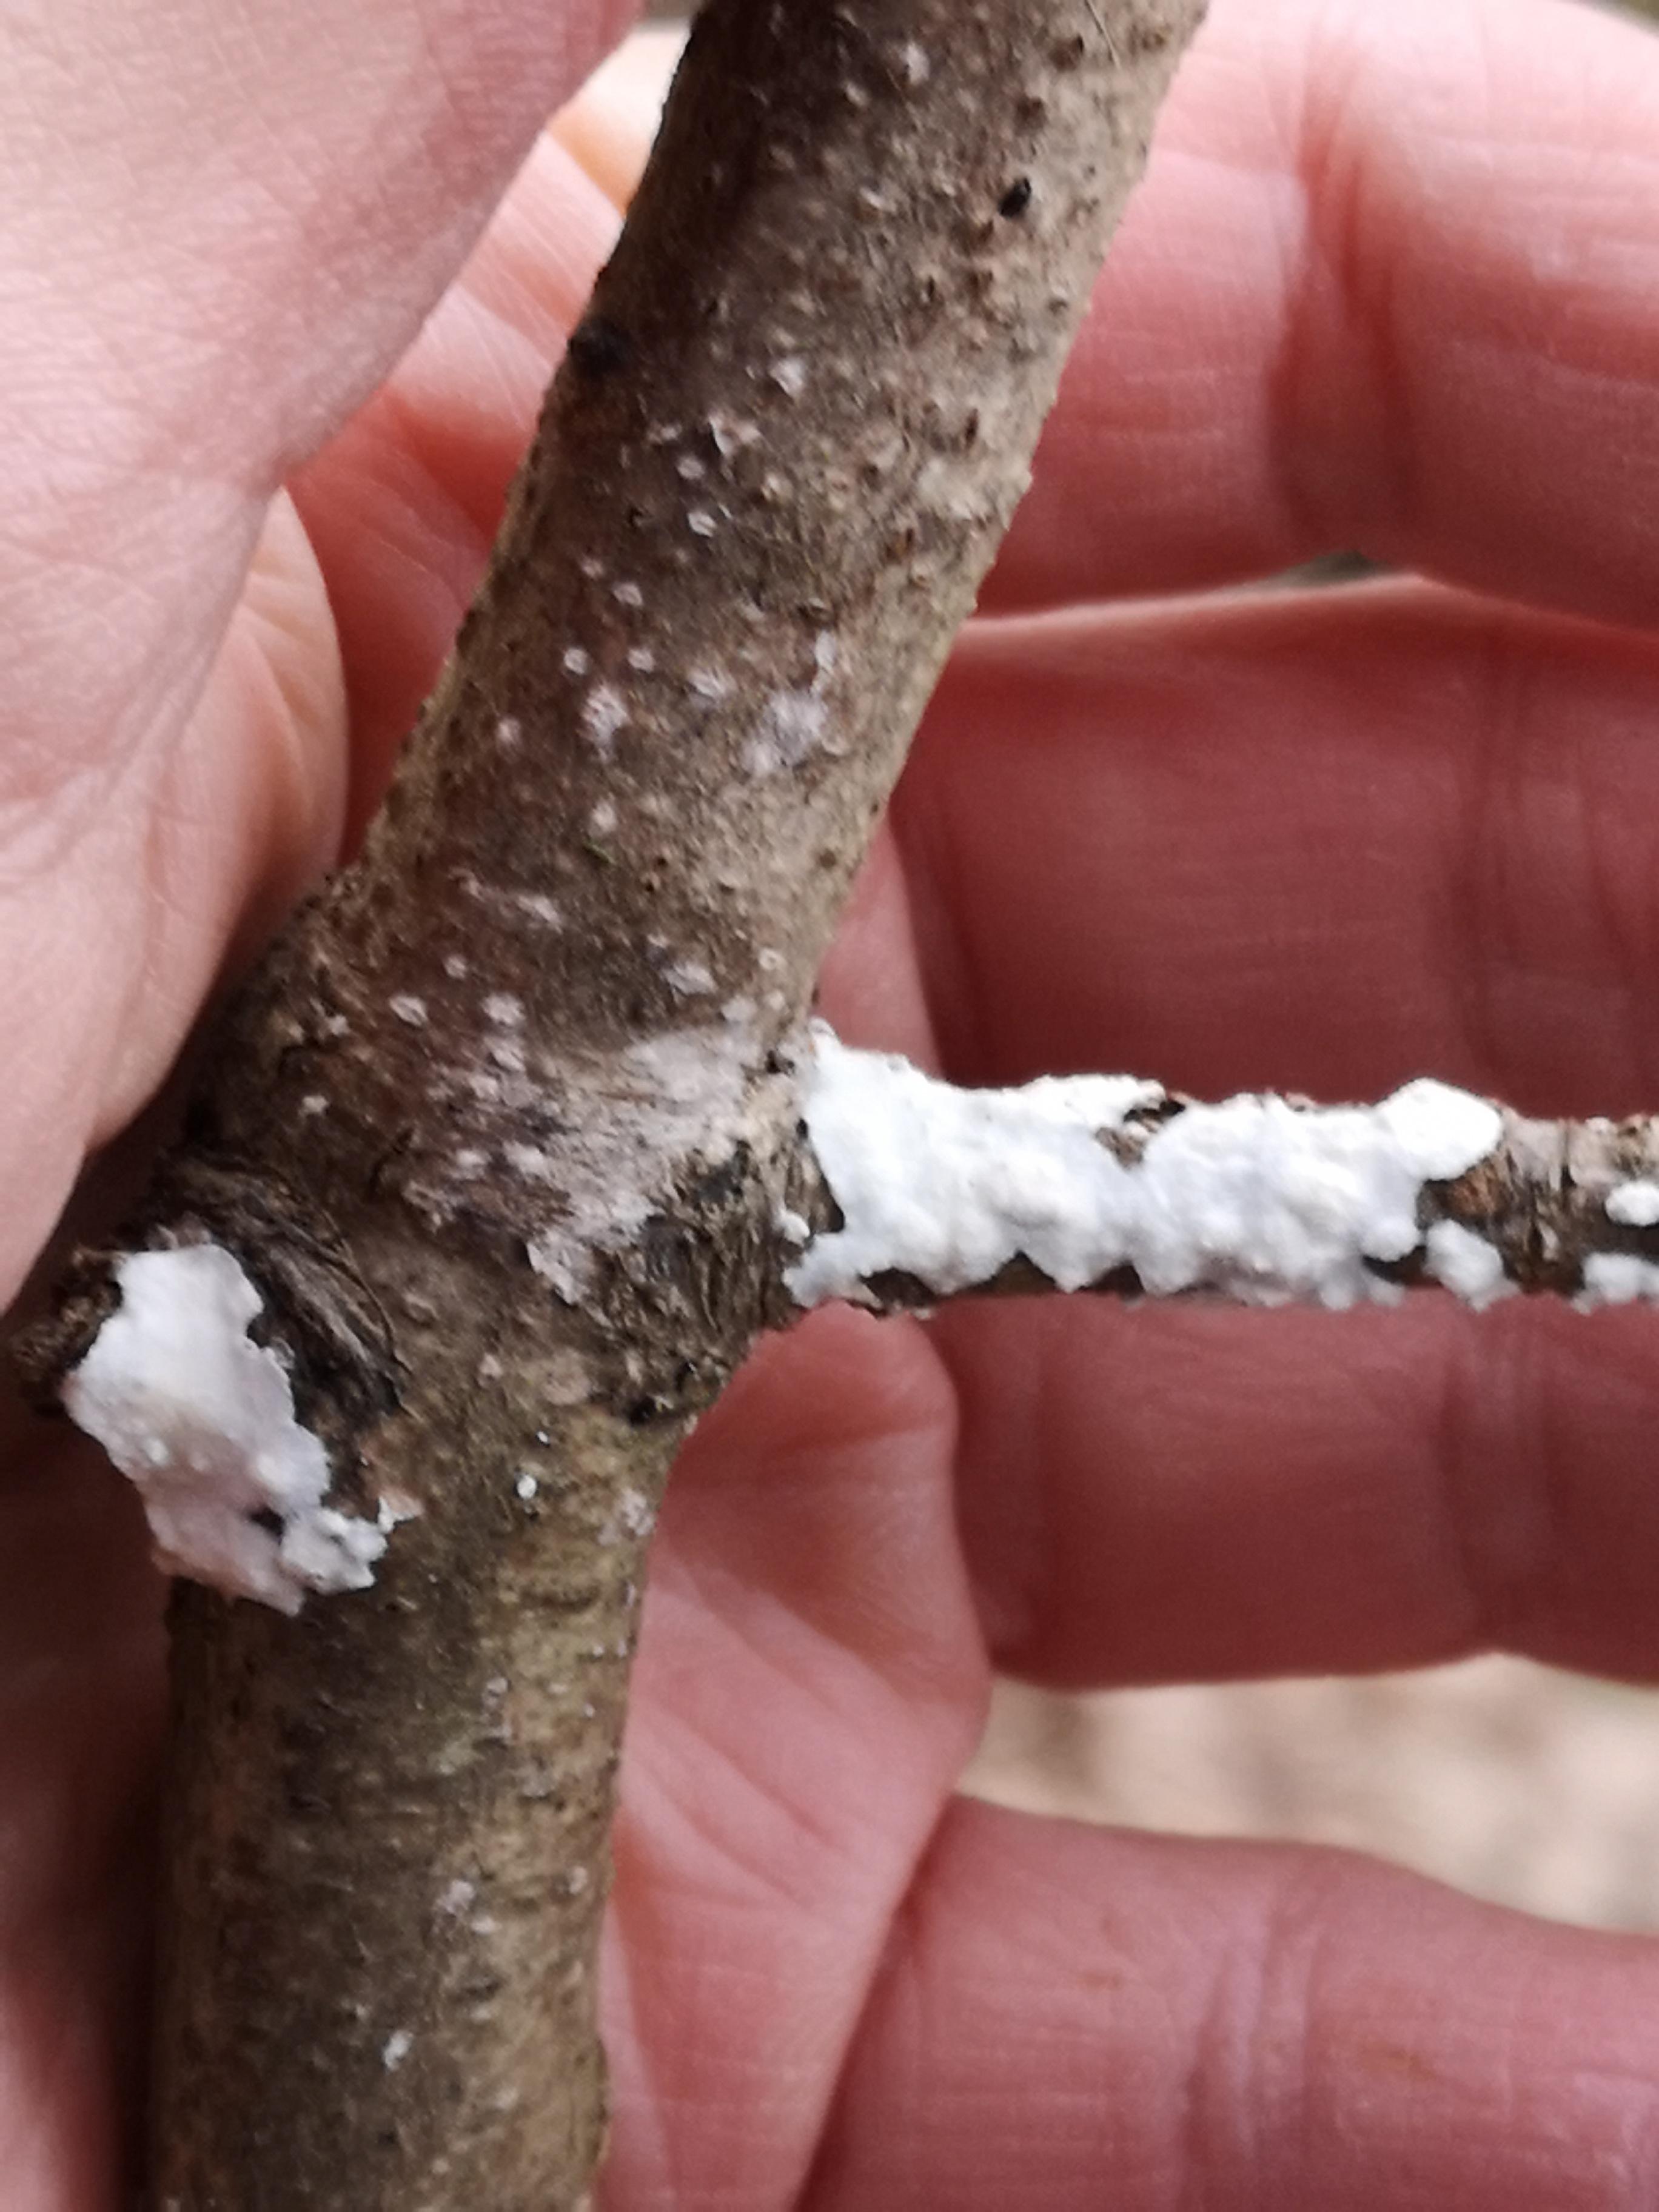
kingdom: Fungi
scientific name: Fungi
